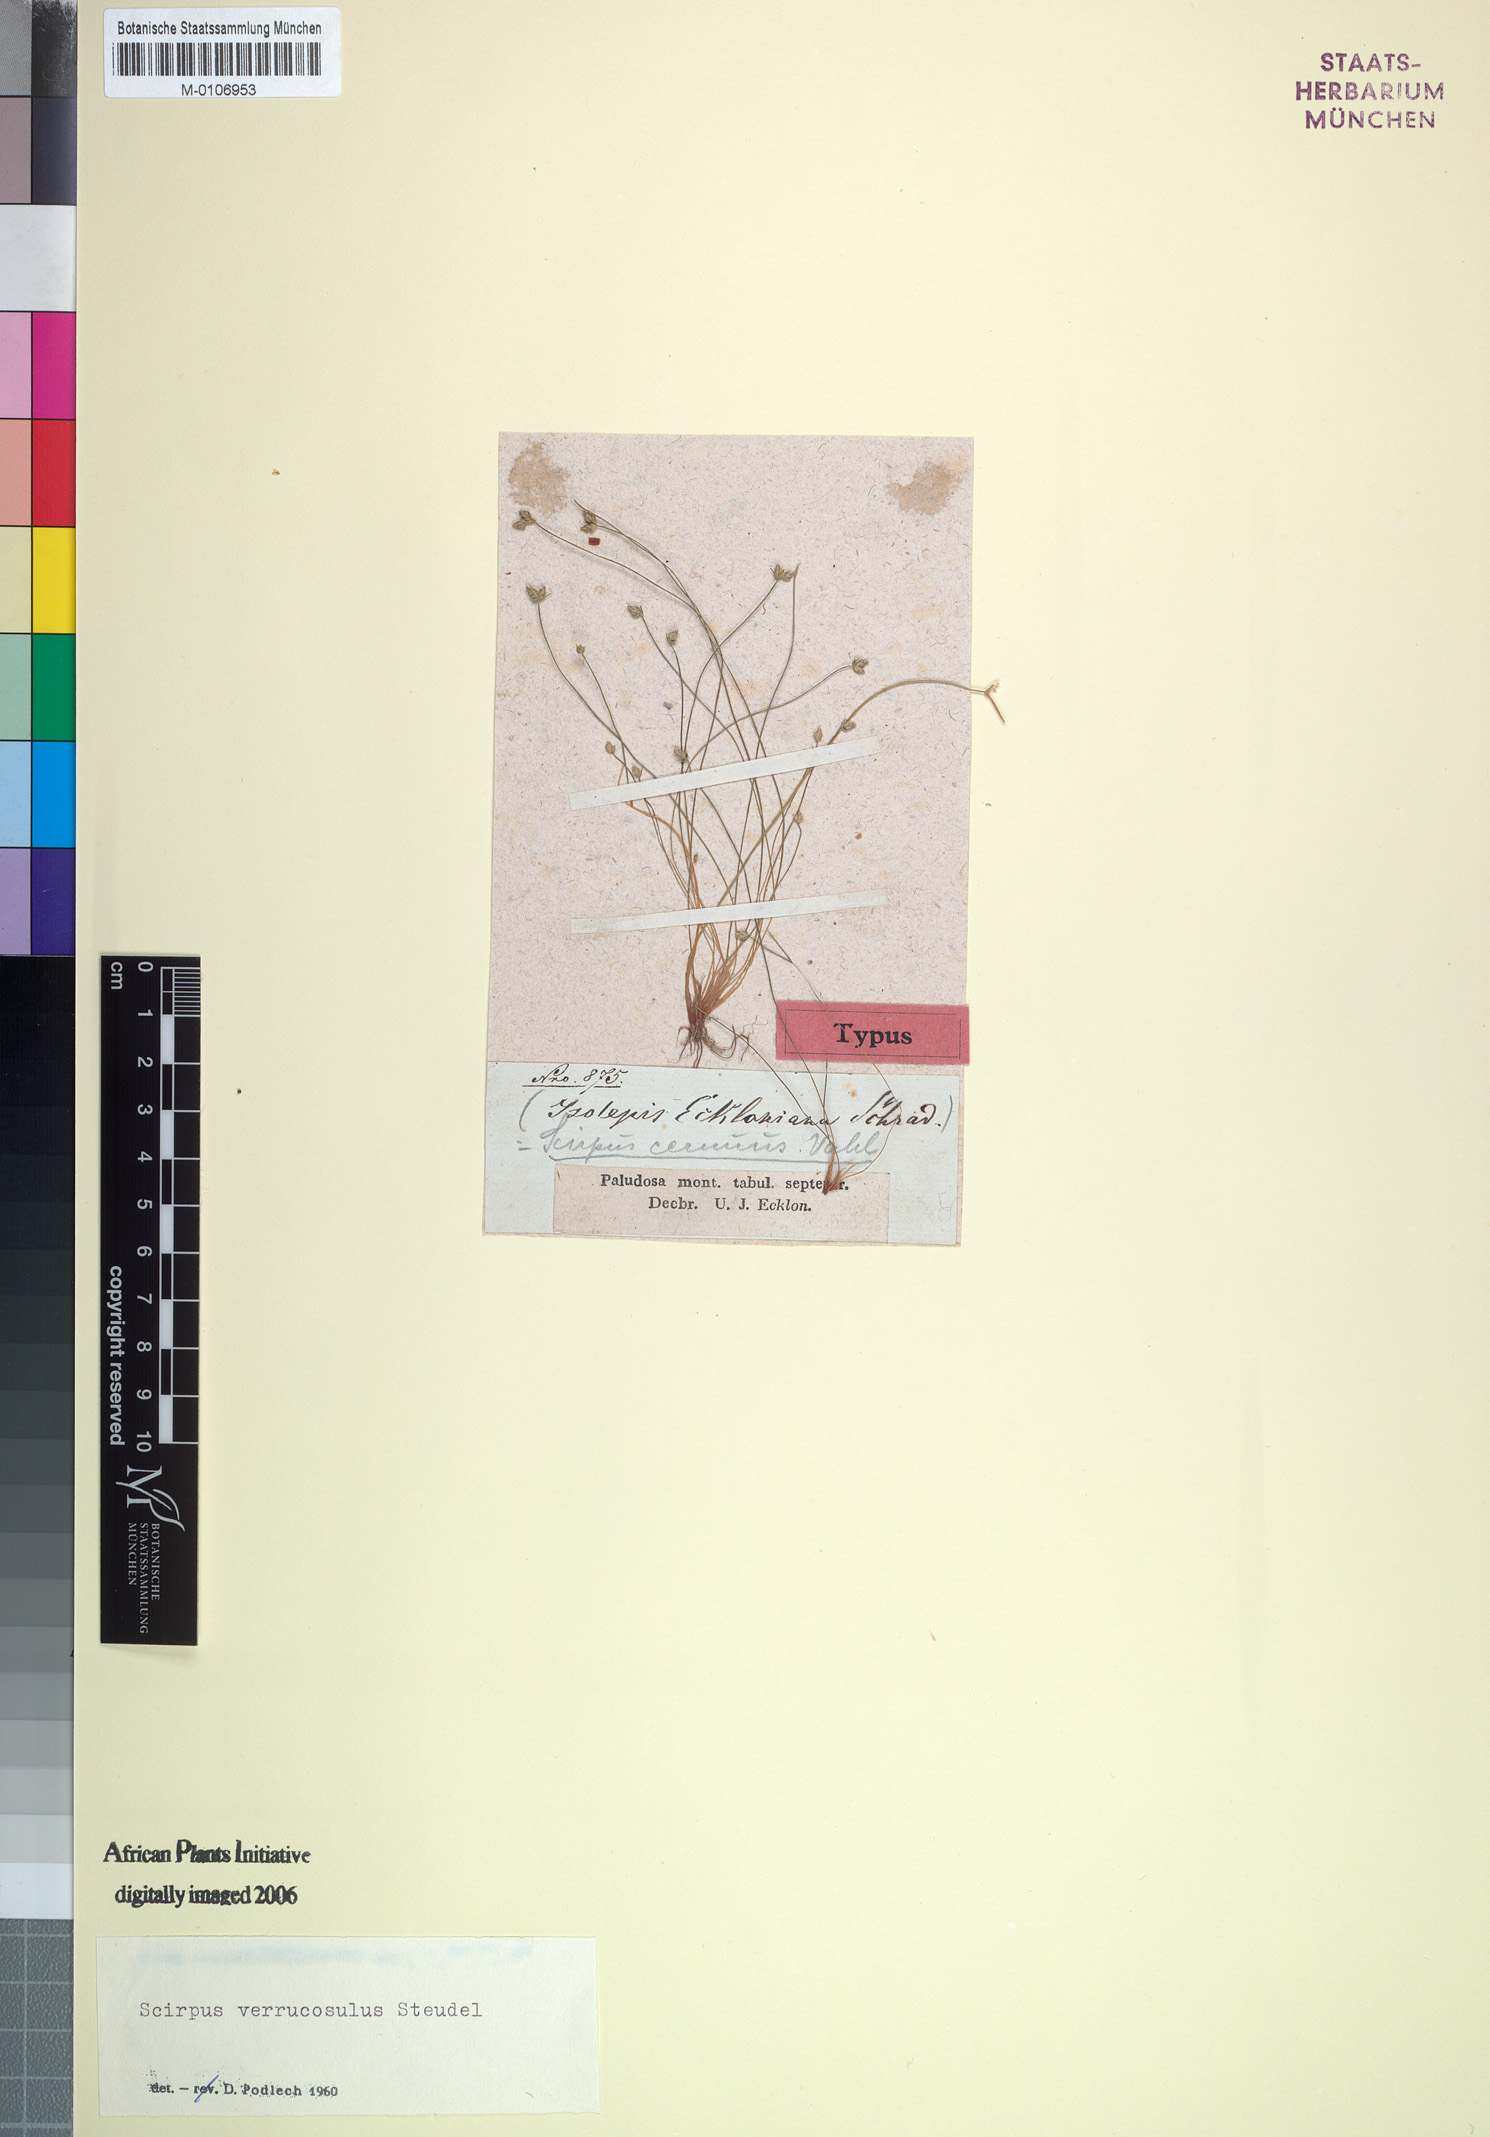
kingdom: Plantae
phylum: Tracheophyta
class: Liliopsida
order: Poales
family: Cyperaceae
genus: Isolepis
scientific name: Isolepis cernua
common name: Slender club-rush
